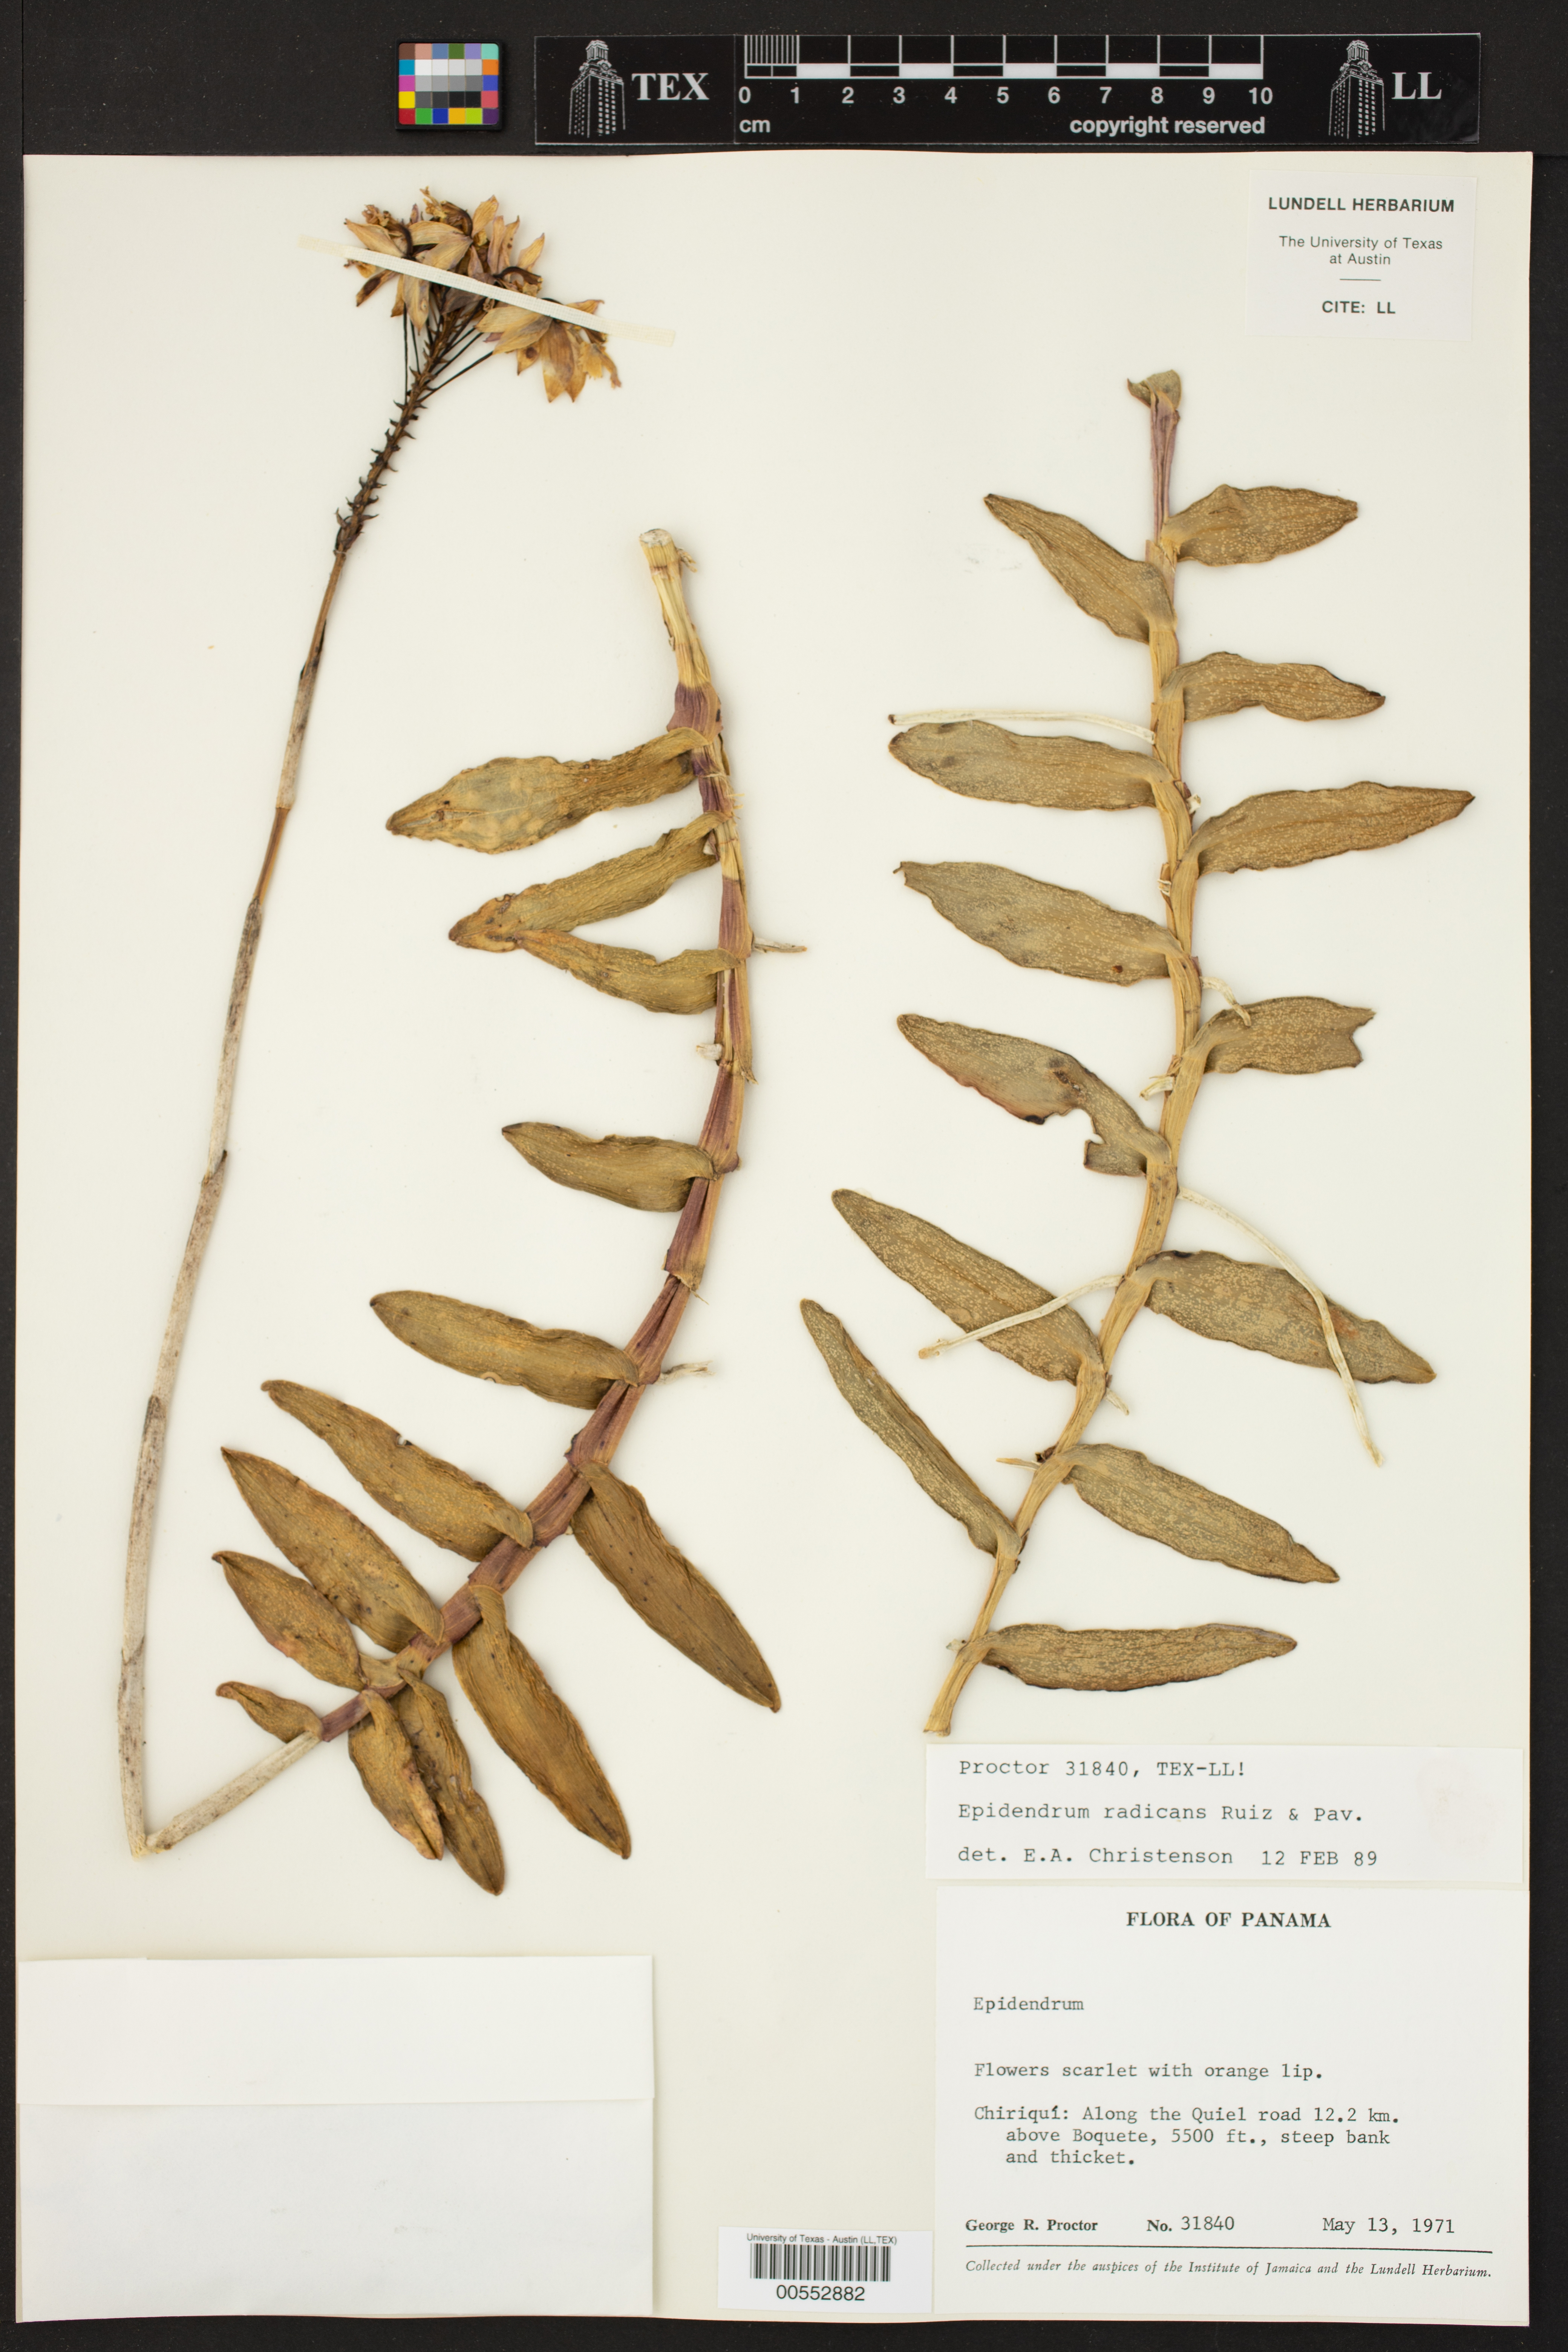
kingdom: Plantae
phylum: Tracheophyta
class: Liliopsida
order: Asparagales
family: Orchidaceae
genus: Epidendrum
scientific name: Epidendrum radicans
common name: Fire star orchid
